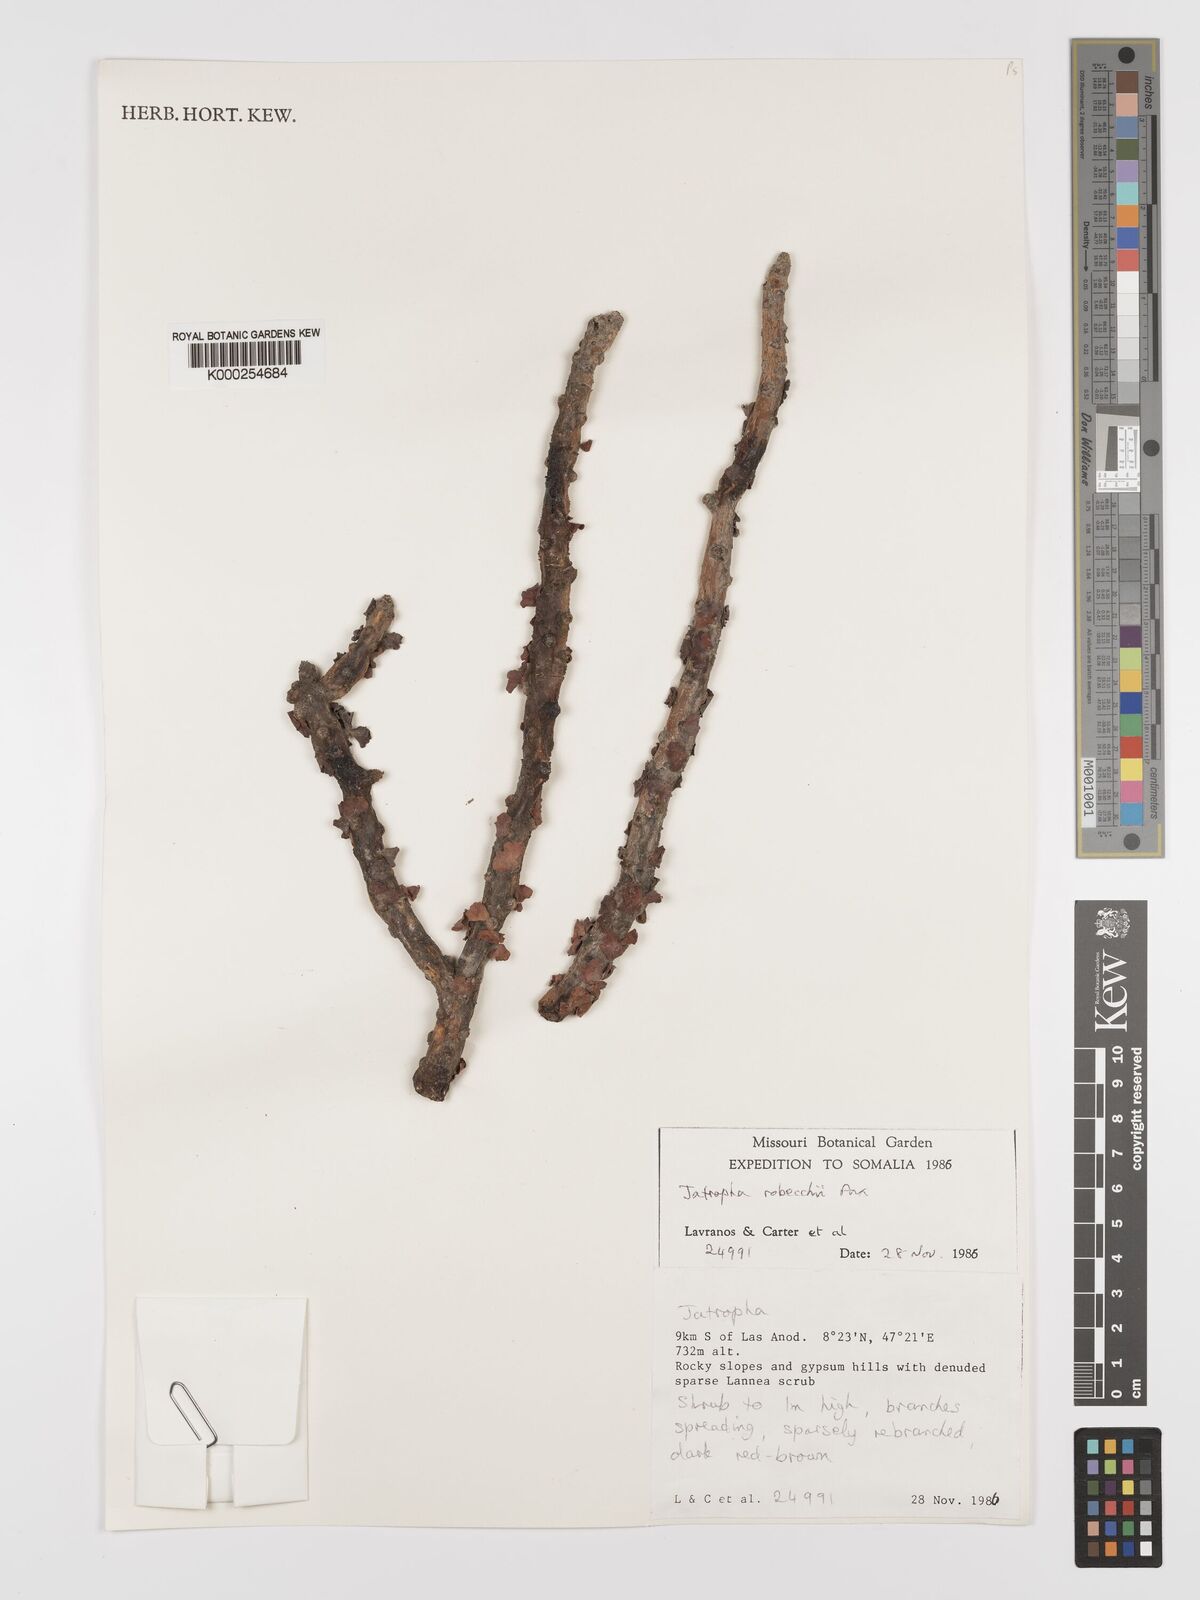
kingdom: Plantae
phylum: Tracheophyta
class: Magnoliopsida
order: Malpighiales
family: Euphorbiaceae
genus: Jatropha
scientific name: Jatropha robecchii
